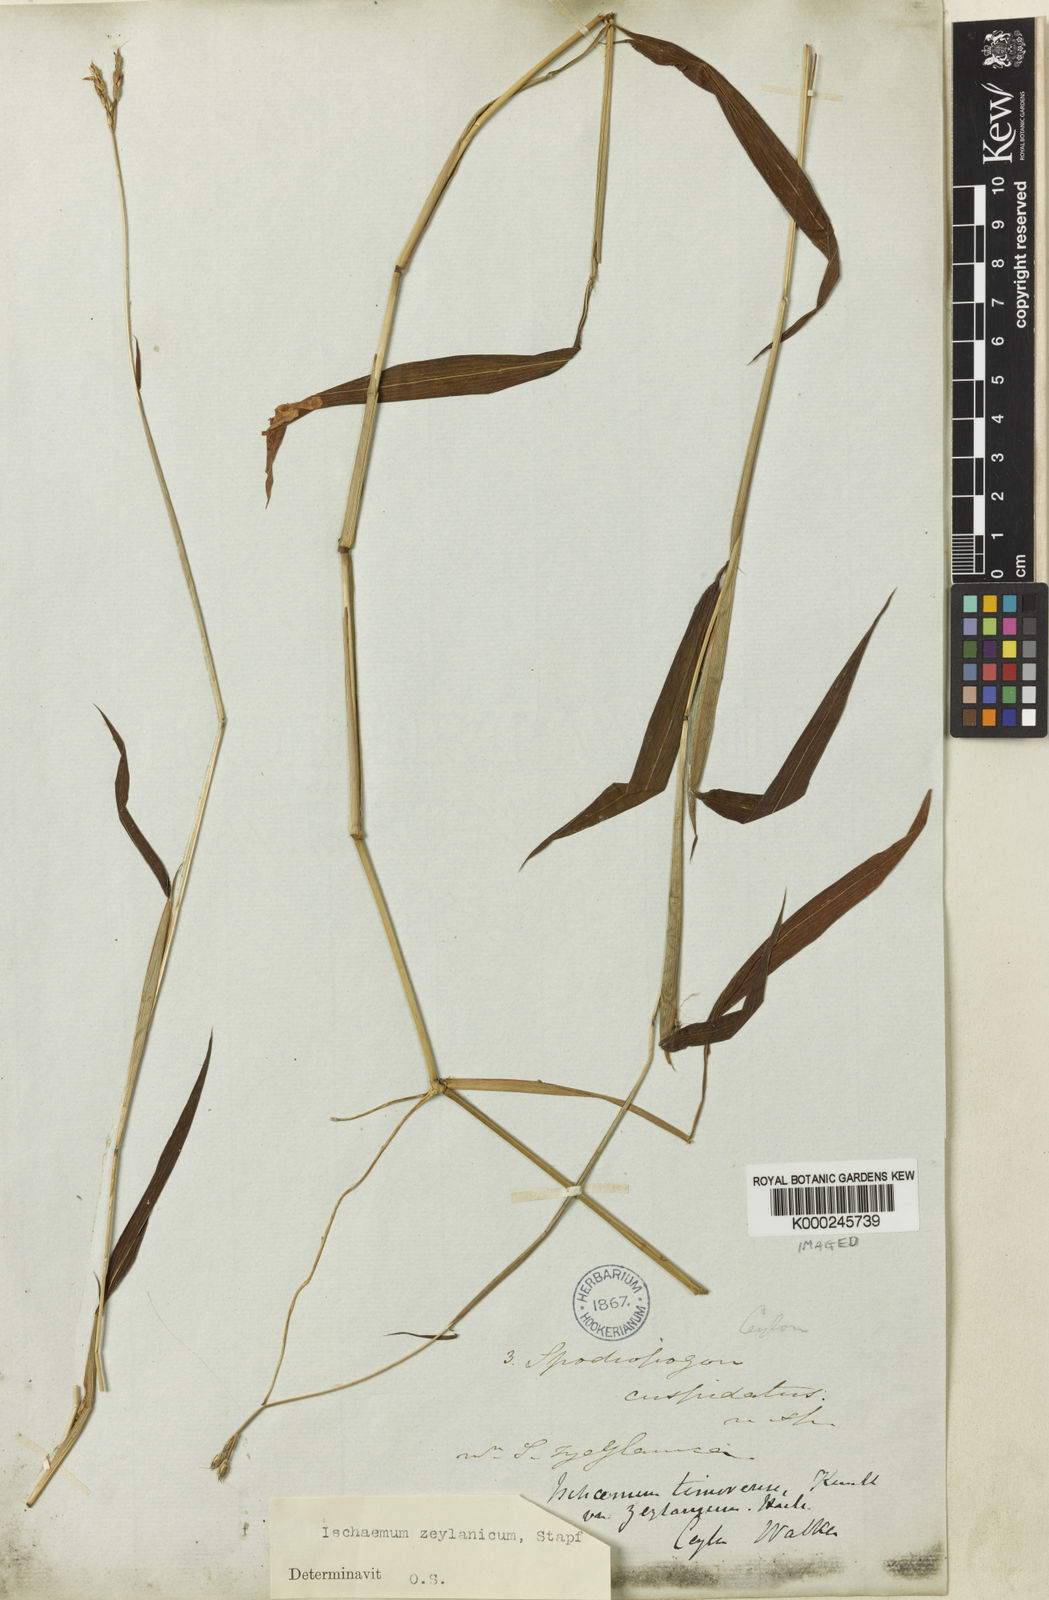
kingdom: Plantae
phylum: Tracheophyta
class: Liliopsida
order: Poales
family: Poaceae
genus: Ischaemum
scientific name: Ischaemum zeylanicola
